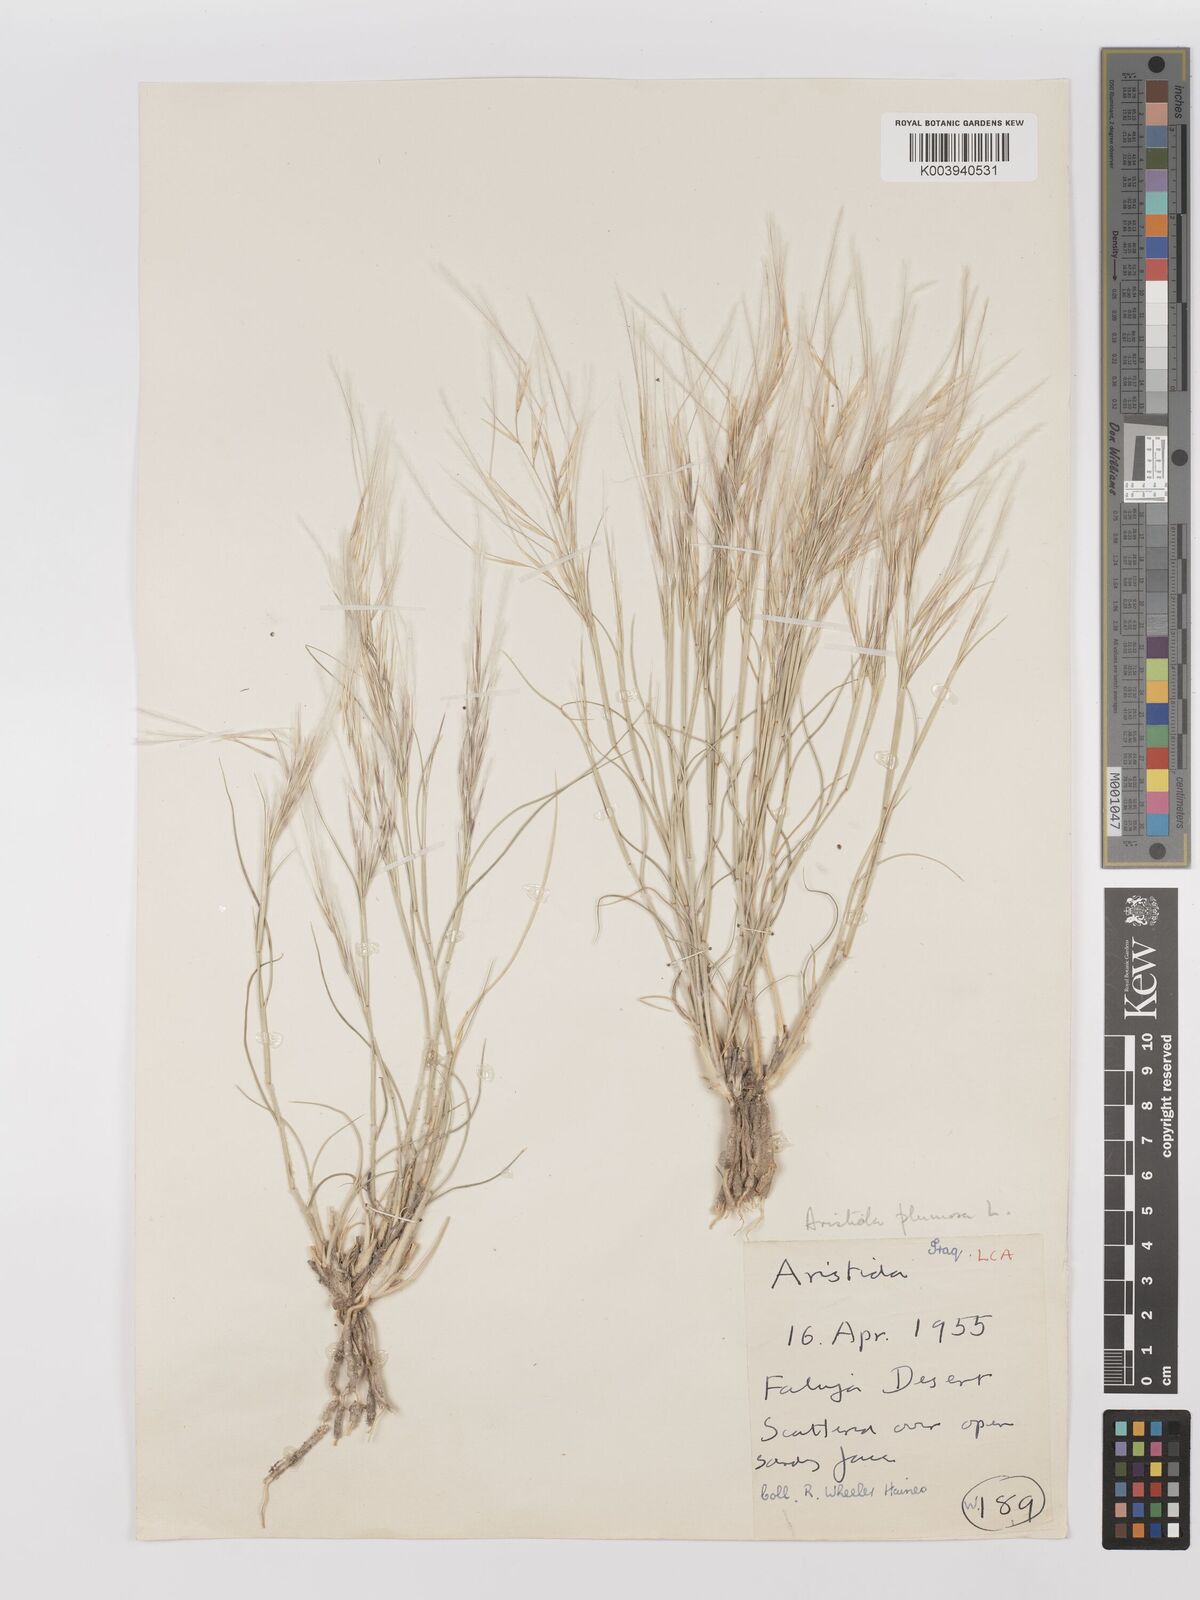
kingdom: Plantae
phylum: Tracheophyta
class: Liliopsida
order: Poales
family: Poaceae
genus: Stipagrostis
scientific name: Stipagrostis plumosa
